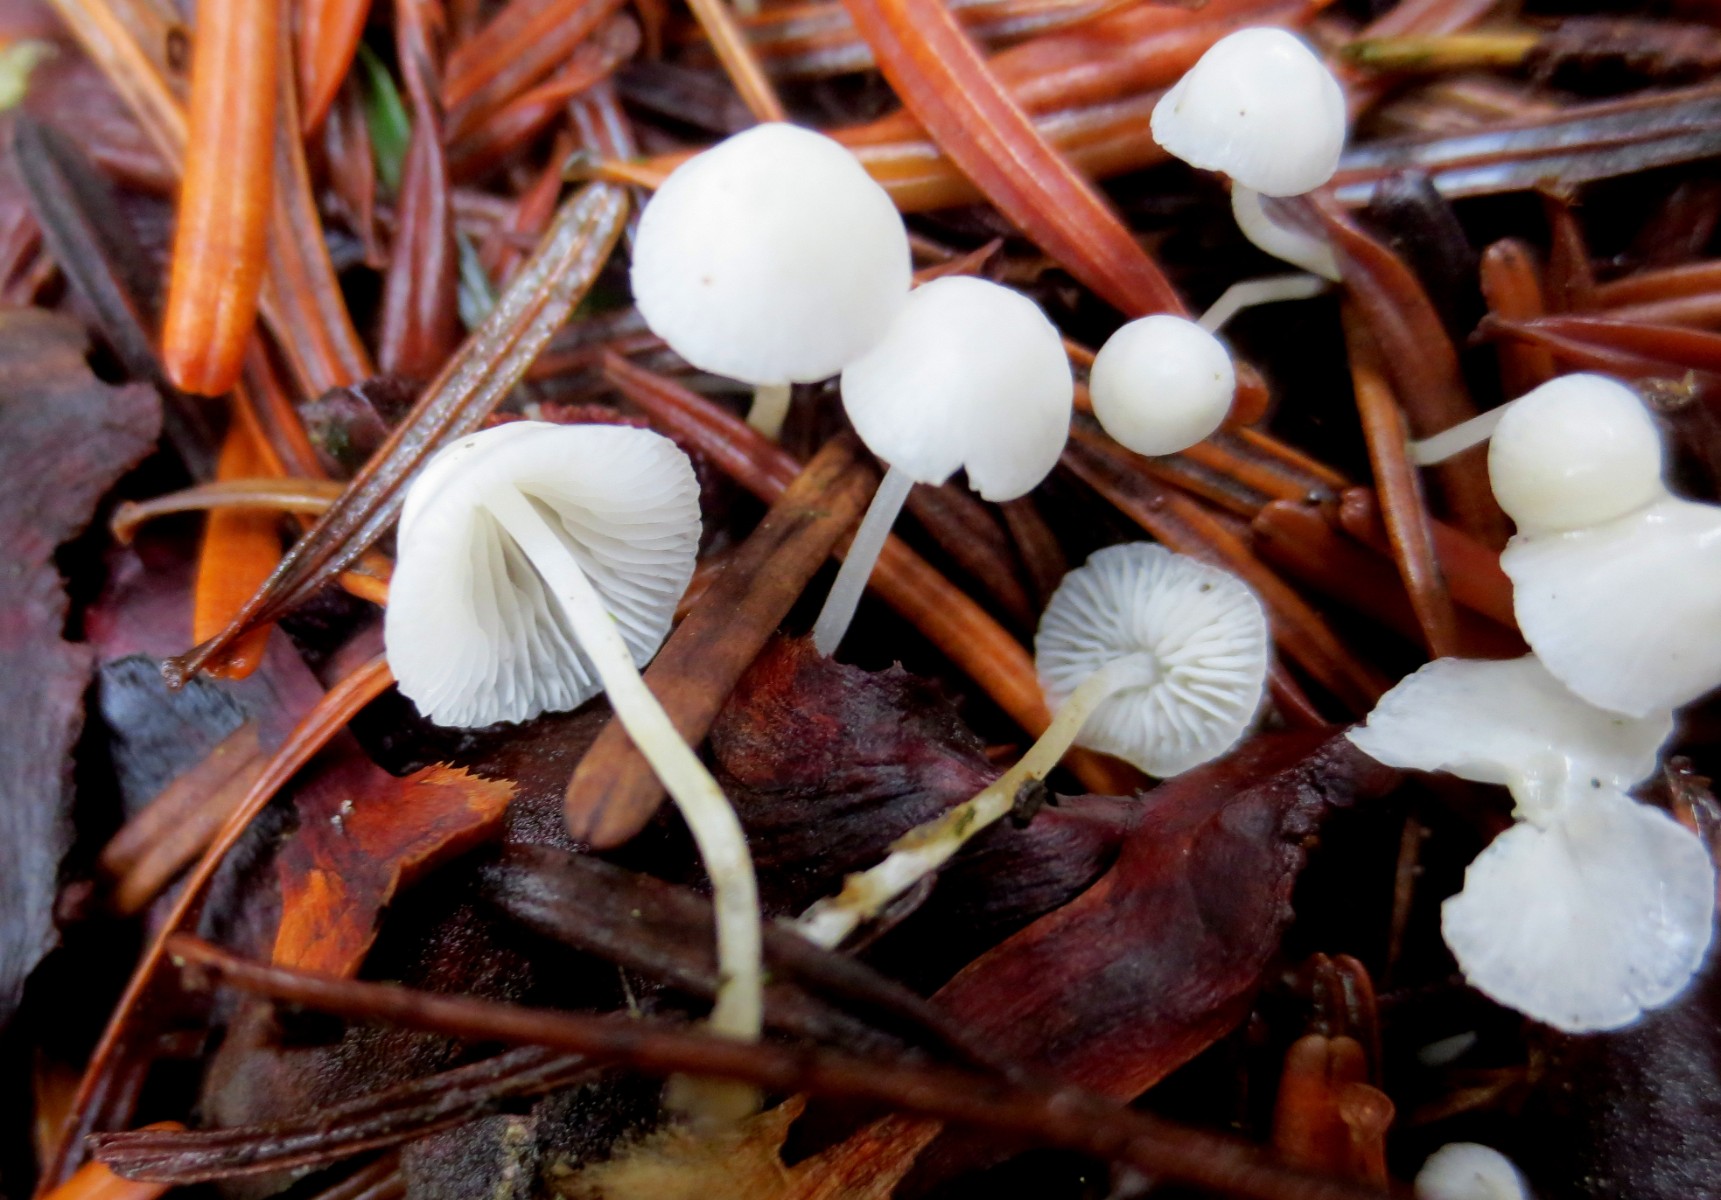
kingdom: Fungi
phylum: Basidiomycota
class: Agaricomycetes
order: Agaricales
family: Mycenaceae
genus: Hemimycena
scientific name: Hemimycena
